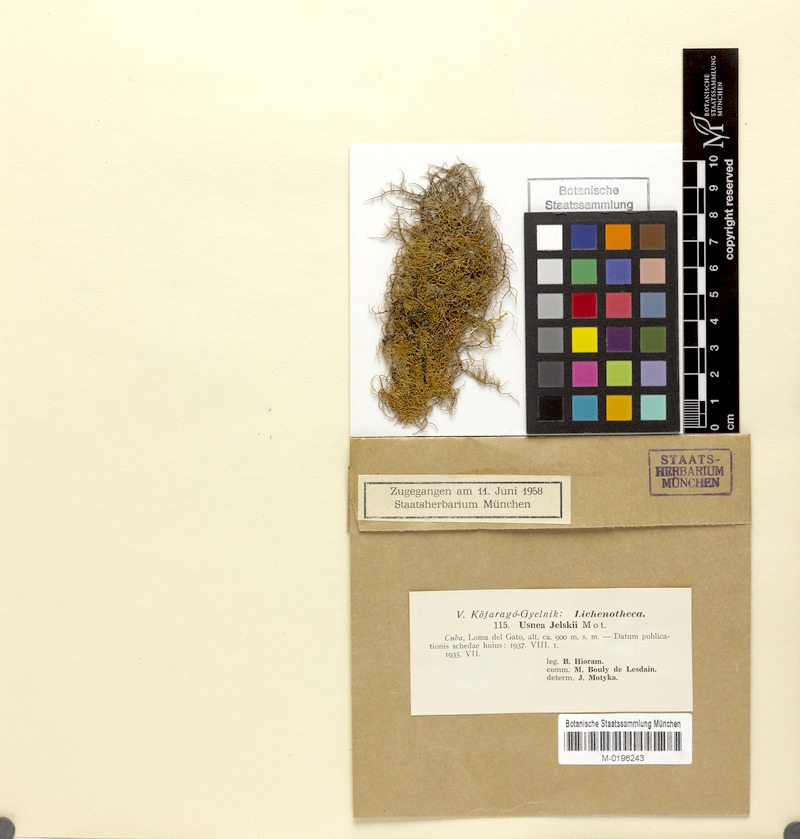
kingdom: Fungi
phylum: Ascomycota
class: Lecanoromycetes
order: Lecanorales
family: Parmeliaceae
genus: Usnea
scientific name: Usnea cornuta
